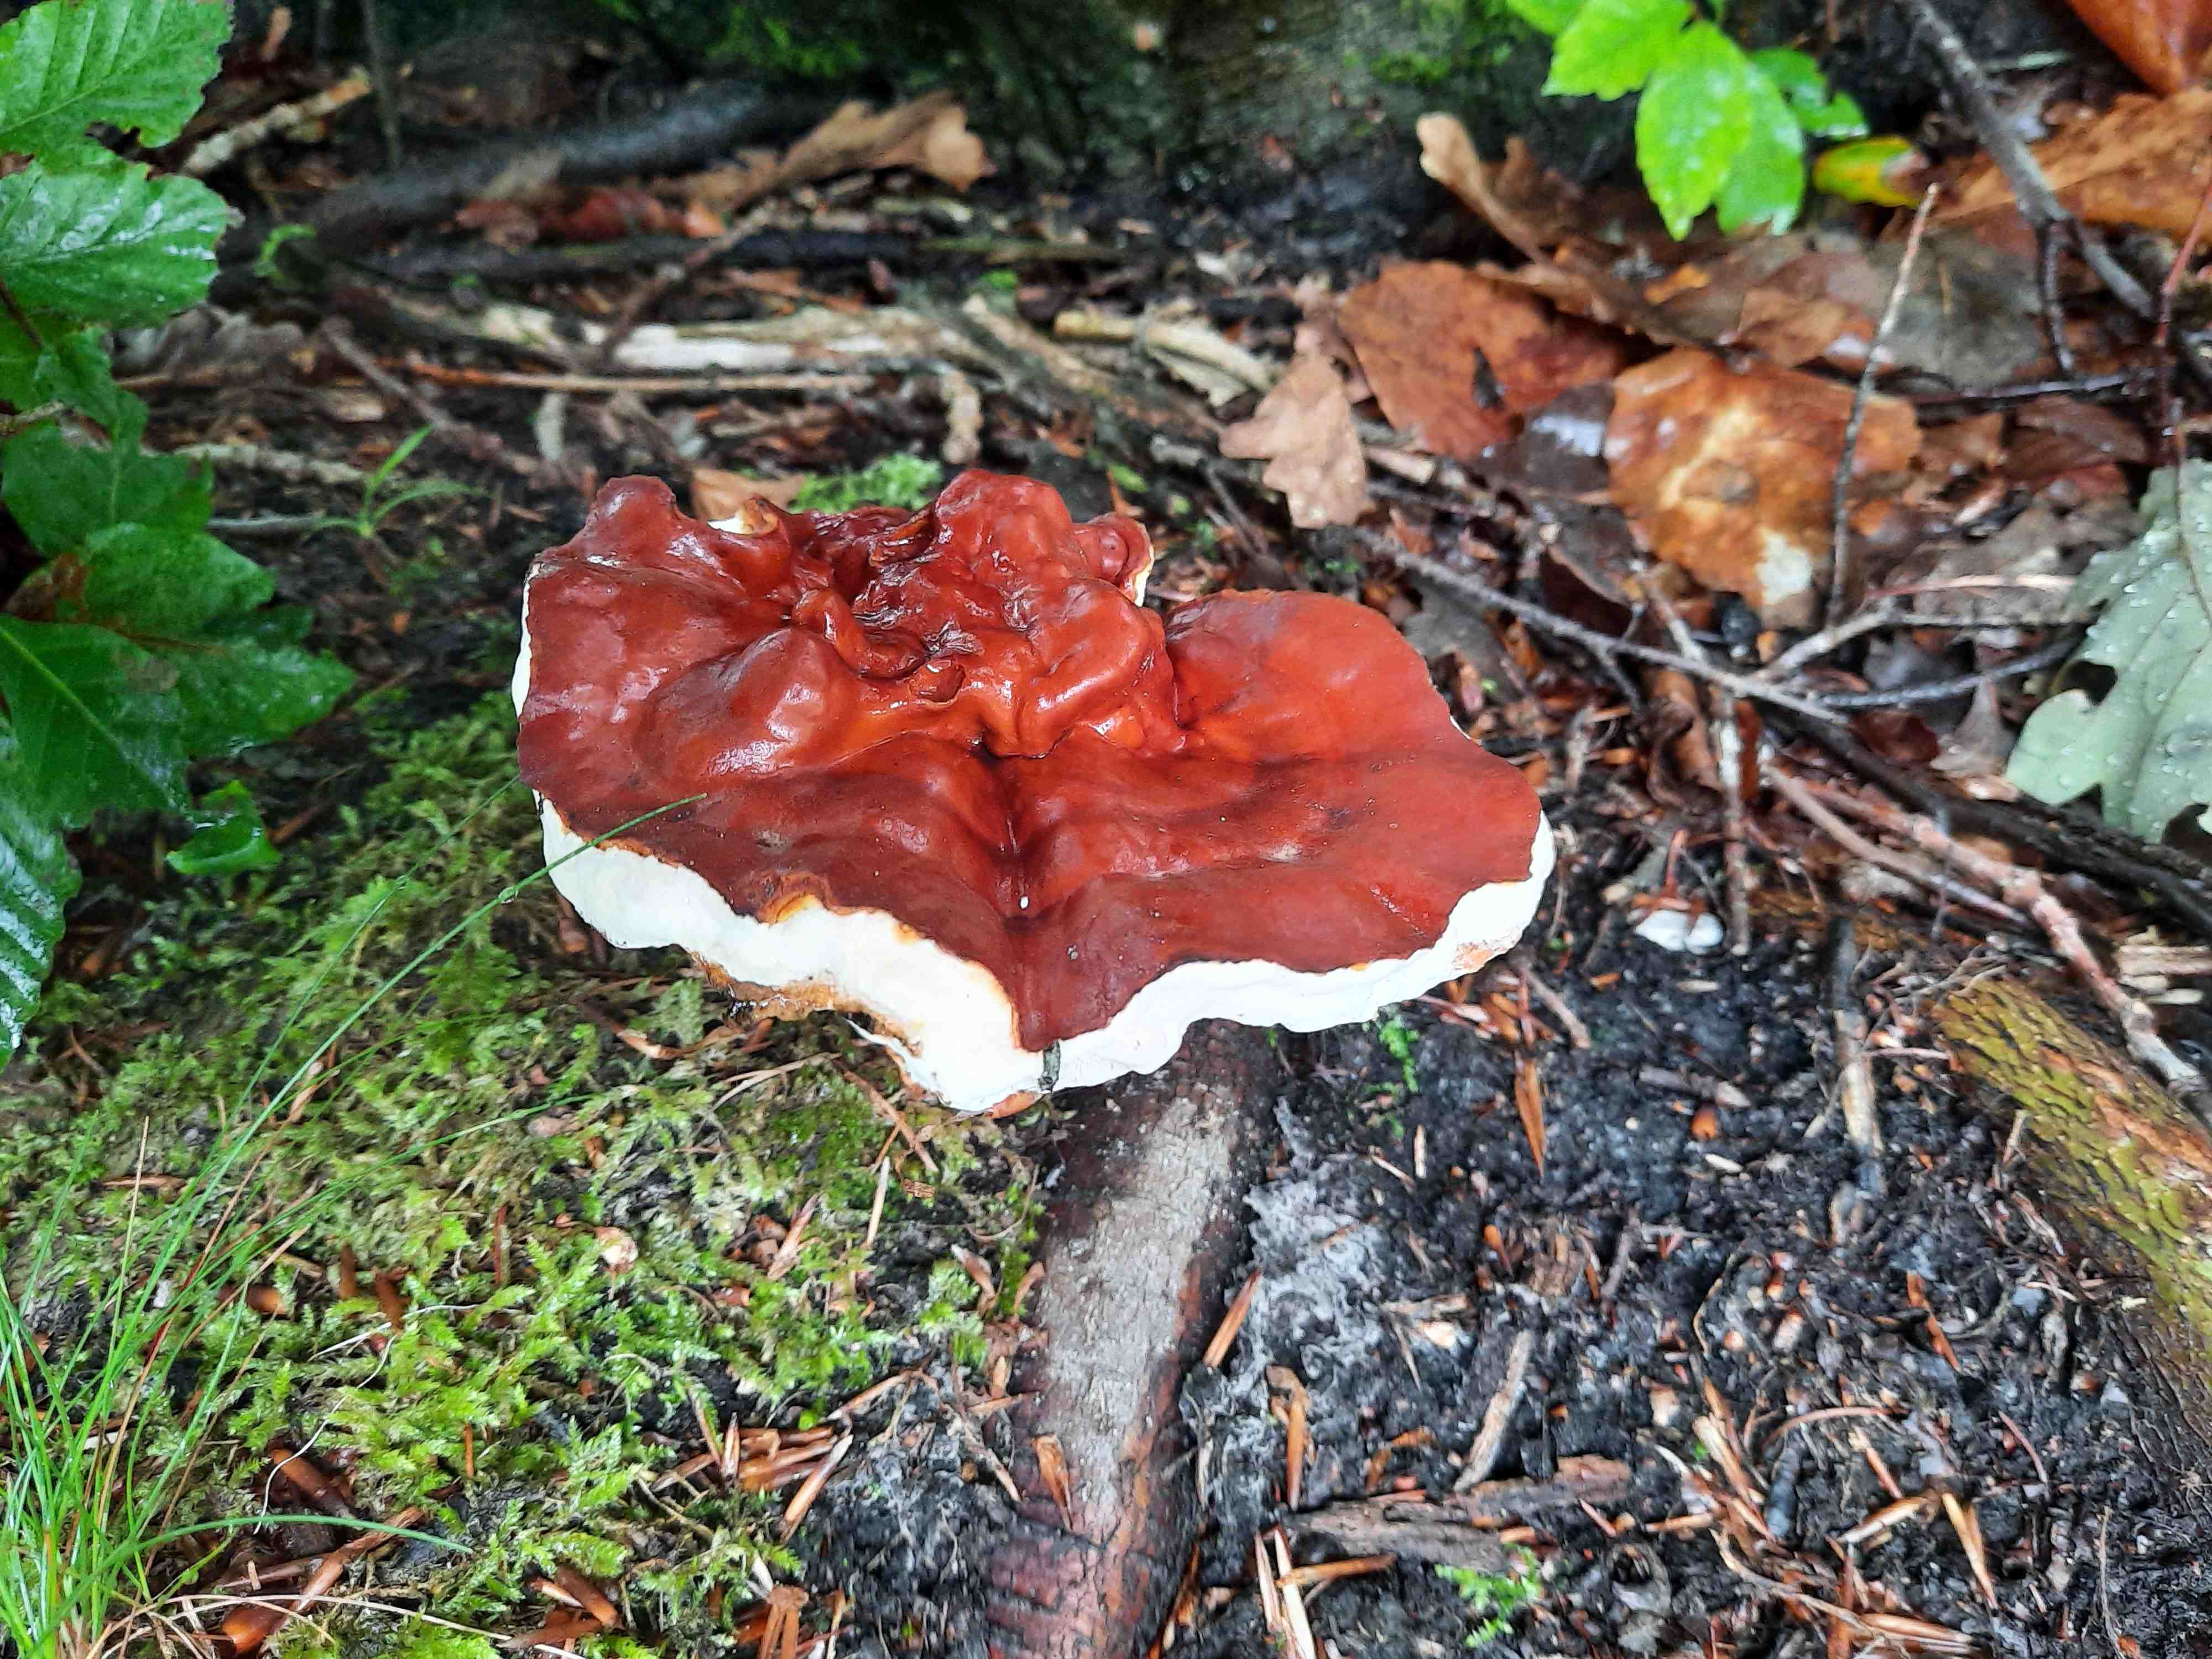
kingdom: Fungi
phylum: Basidiomycota
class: Agaricomycetes
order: Polyporales
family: Polyporaceae
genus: Ganoderma
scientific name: Ganoderma lucidum
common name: skinnende lakporesvamp
